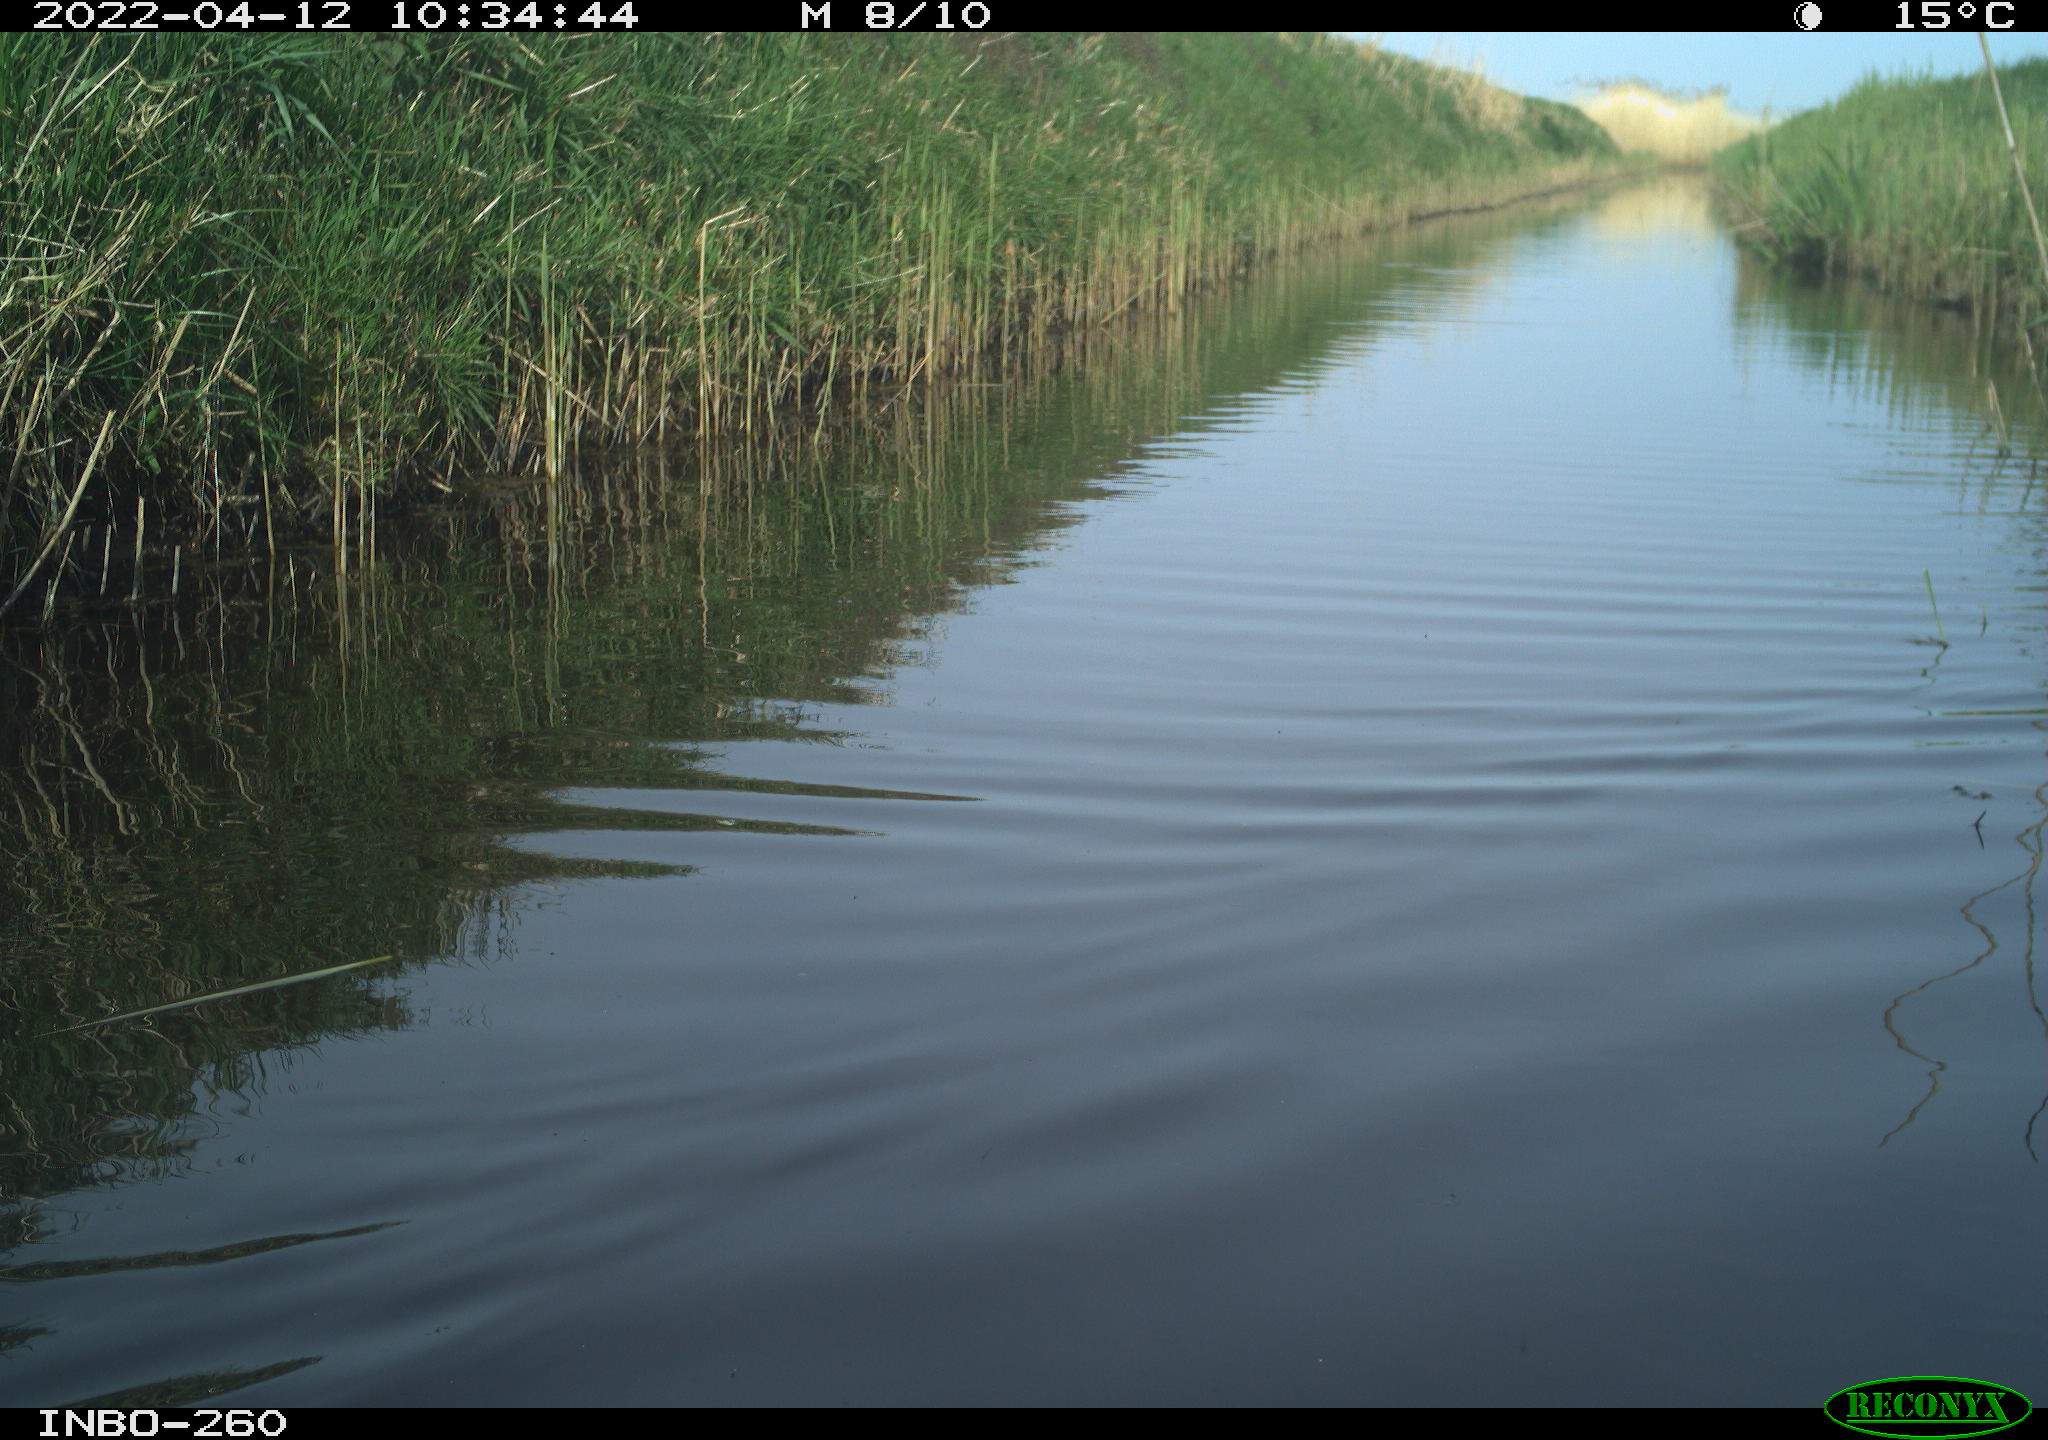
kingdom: Animalia
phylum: Chordata
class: Aves
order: Gruiformes
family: Rallidae
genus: Fulica
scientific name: Fulica atra
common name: Eurasian coot
